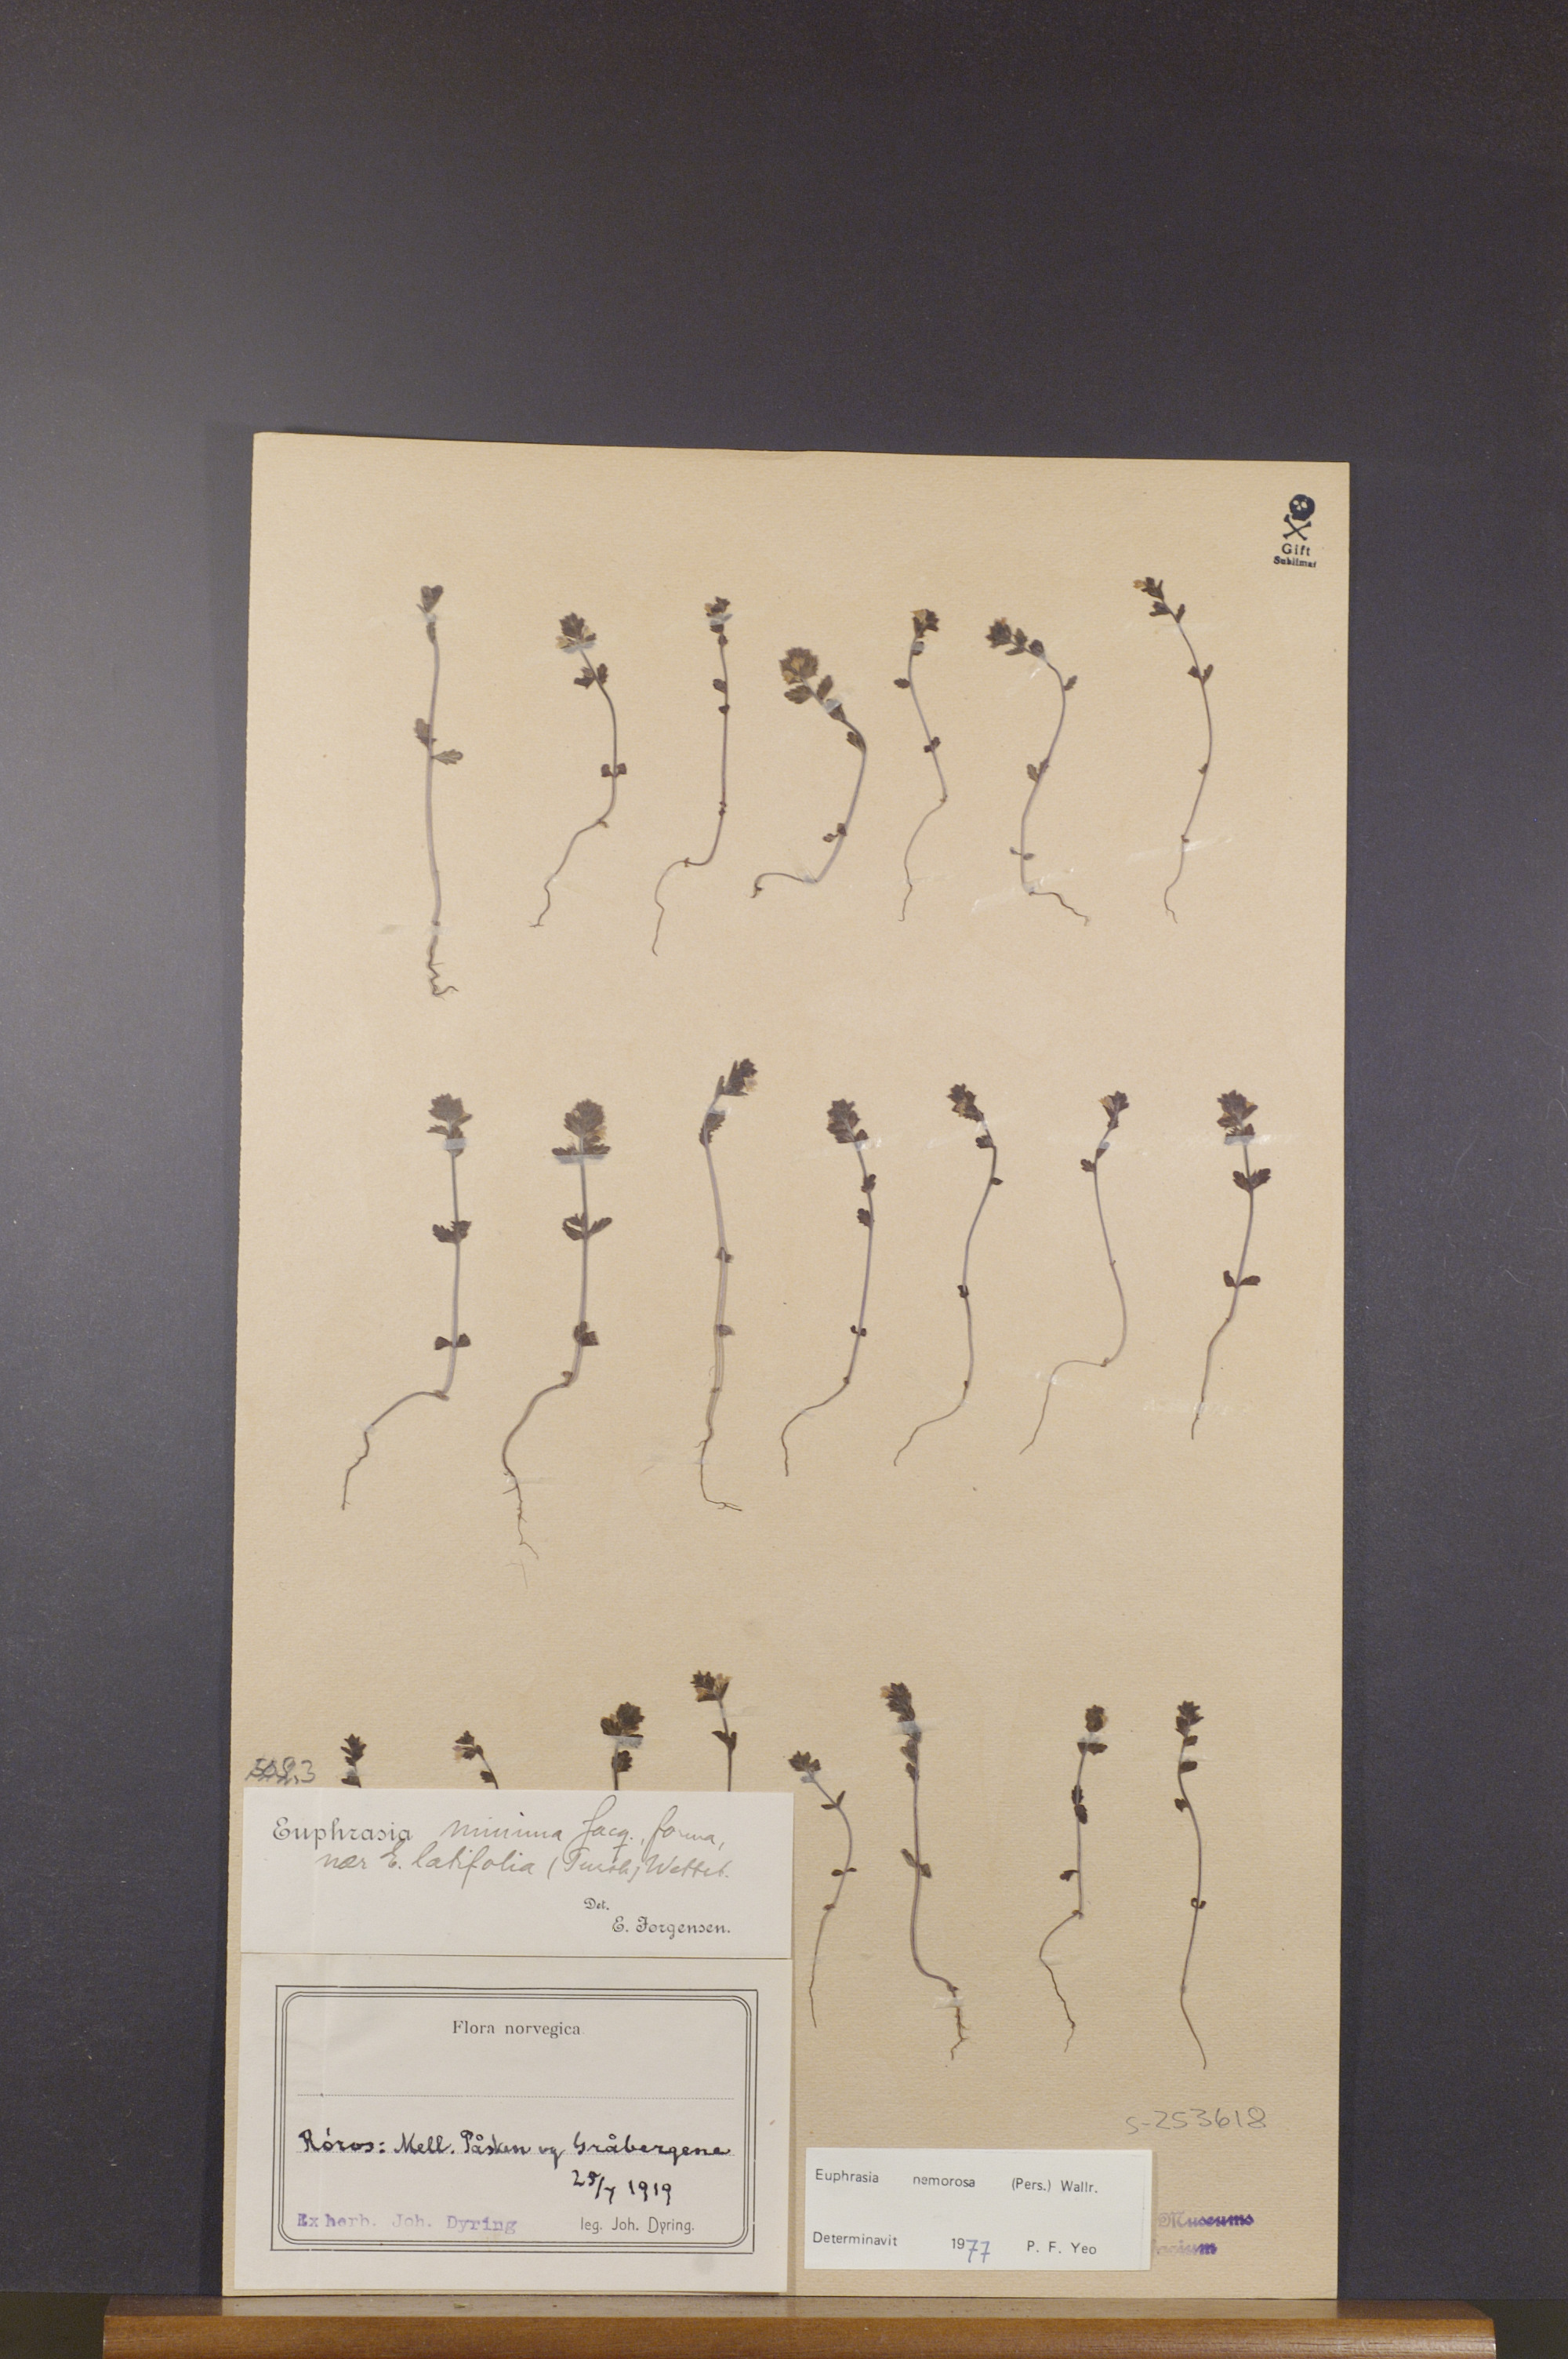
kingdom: Plantae
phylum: Tracheophyta
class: Magnoliopsida
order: Lamiales
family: Orobanchaceae
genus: Euphrasia
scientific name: Euphrasia nemorosa
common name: Common eyebright
